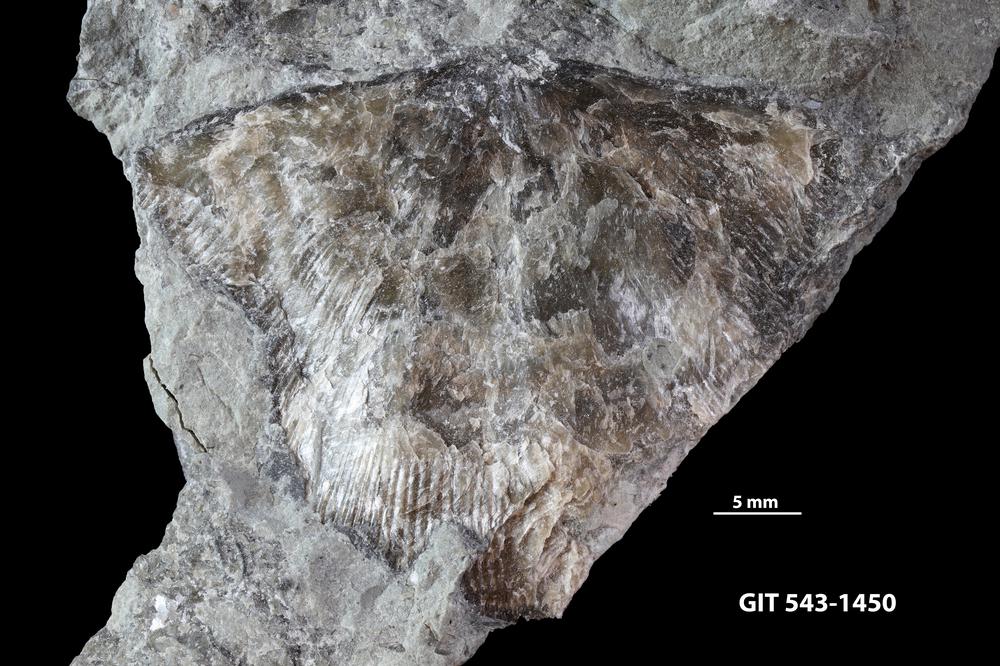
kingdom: Animalia
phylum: Brachiopoda
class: Rhynchonellata
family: Clitambonitidae
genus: Clitambonites
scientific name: Clitambonites
